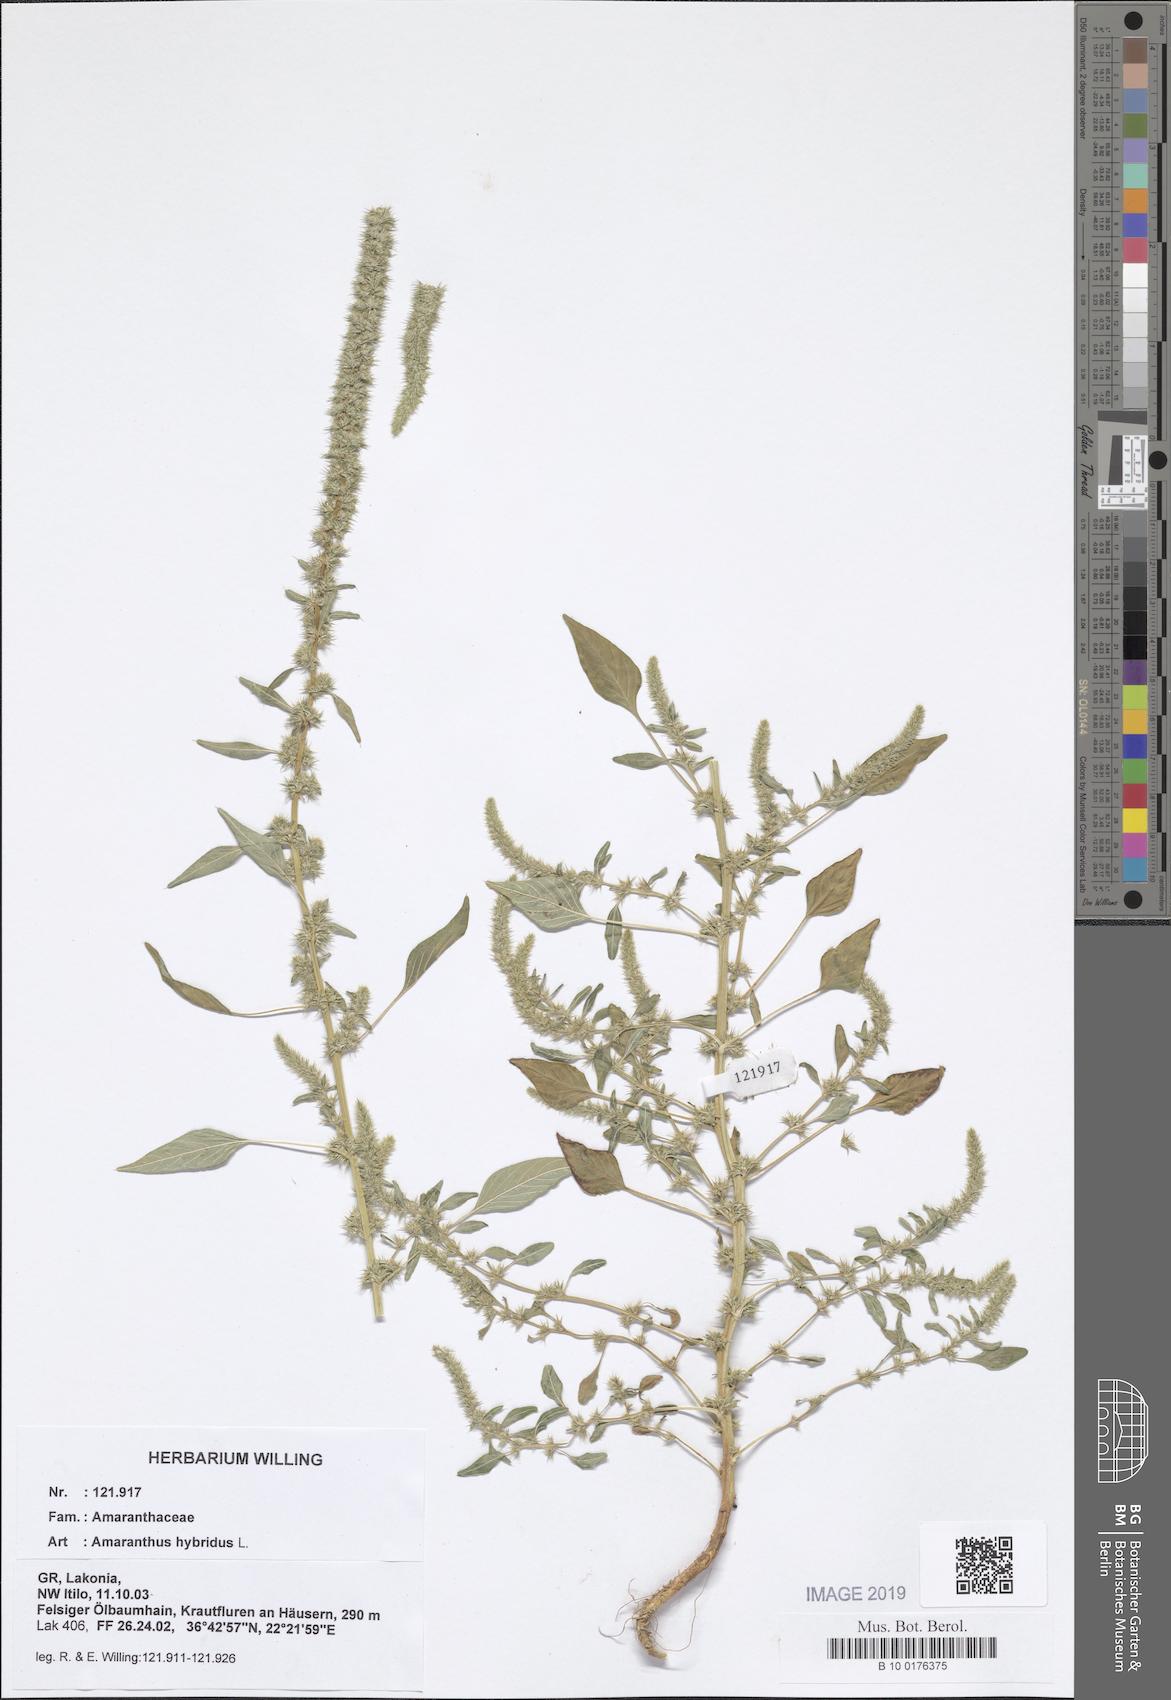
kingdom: Plantae
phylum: Tracheophyta
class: Magnoliopsida
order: Caryophyllales
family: Amaranthaceae
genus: Amaranthus
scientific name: Amaranthus hybridus
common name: Green amaranth
